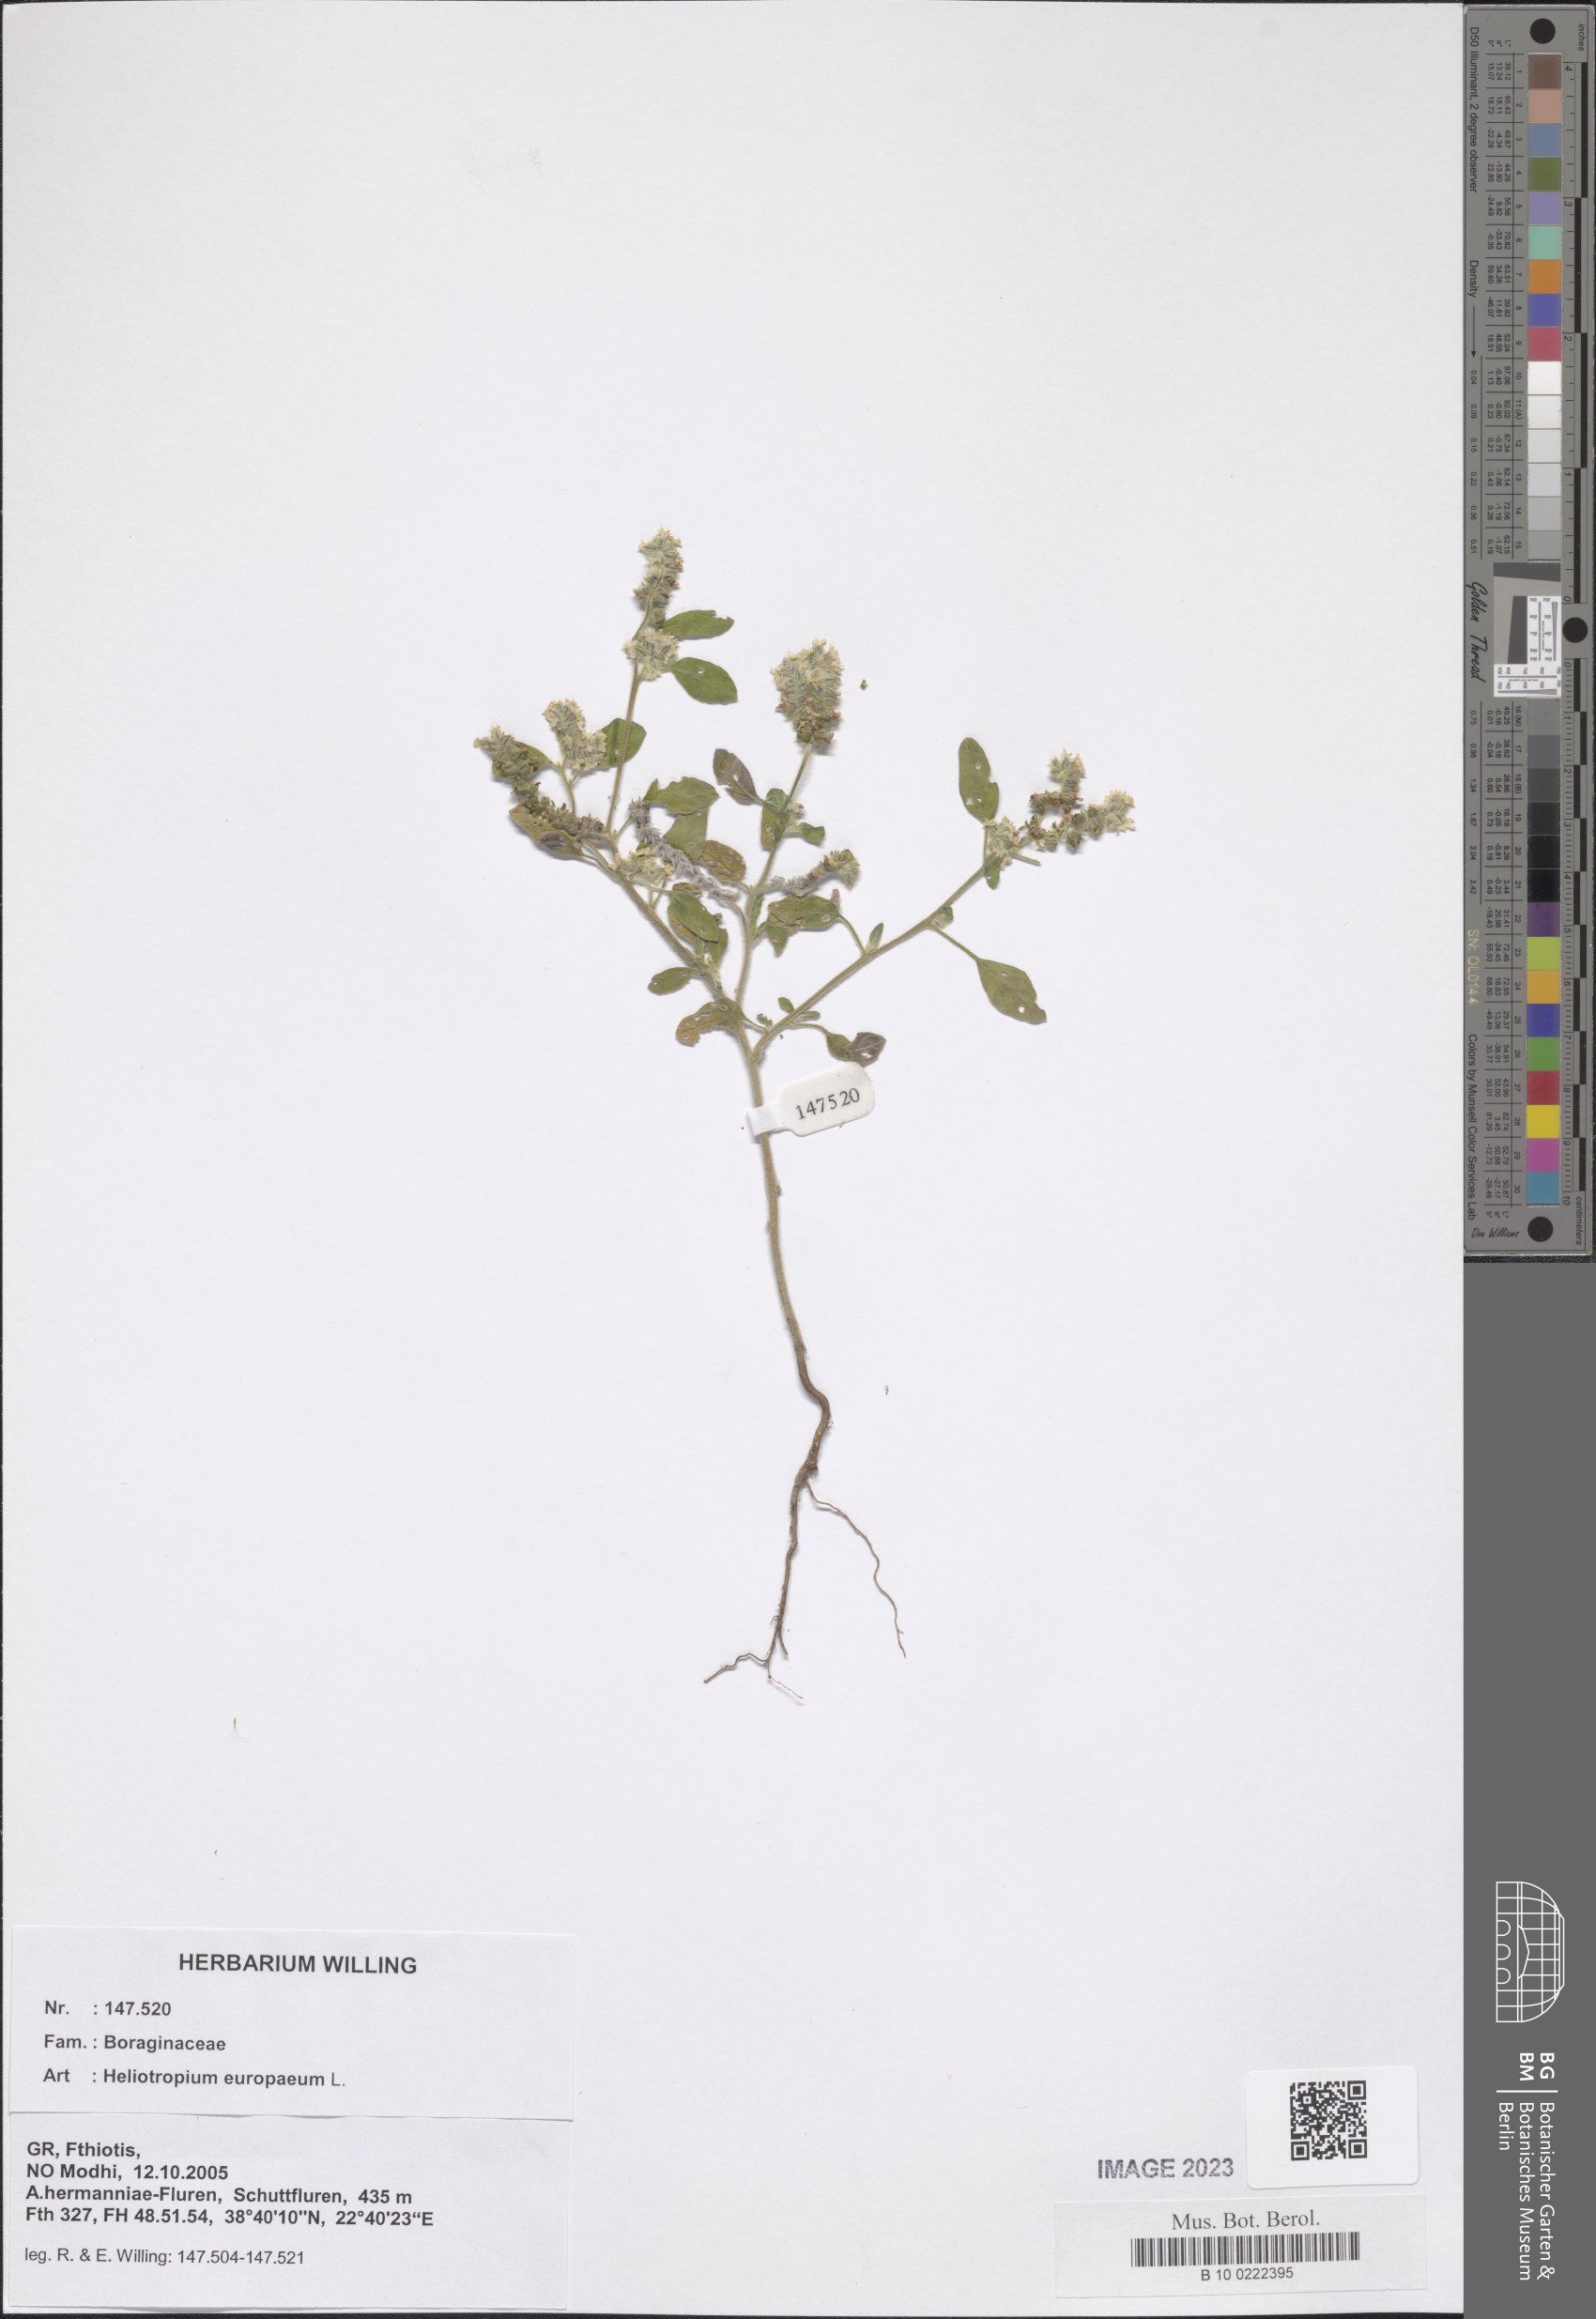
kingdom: Plantae
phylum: Tracheophyta
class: Magnoliopsida
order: Boraginales
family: Heliotropiaceae
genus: Heliotropium
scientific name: Heliotropium europaeum
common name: European heliotrope
